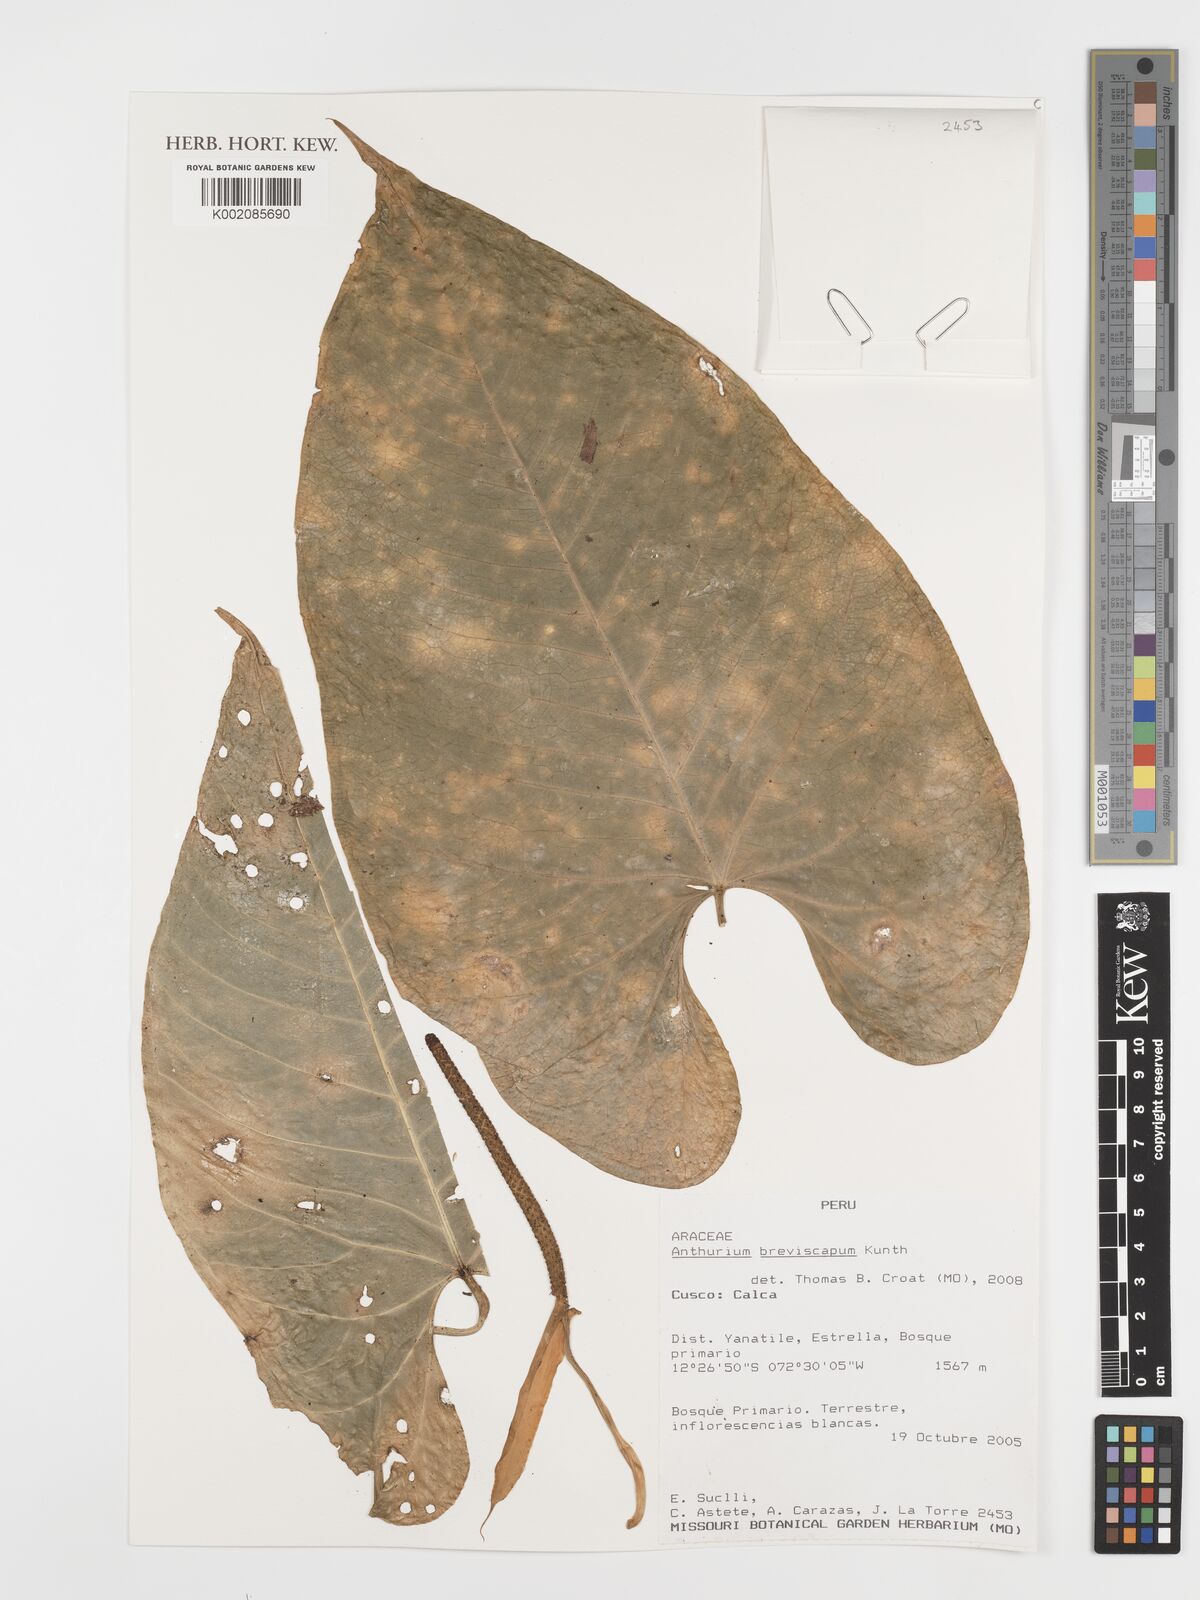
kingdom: Plantae
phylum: Tracheophyta
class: Liliopsida
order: Alismatales
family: Araceae
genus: Anthurium
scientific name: Anthurium breviscapum
